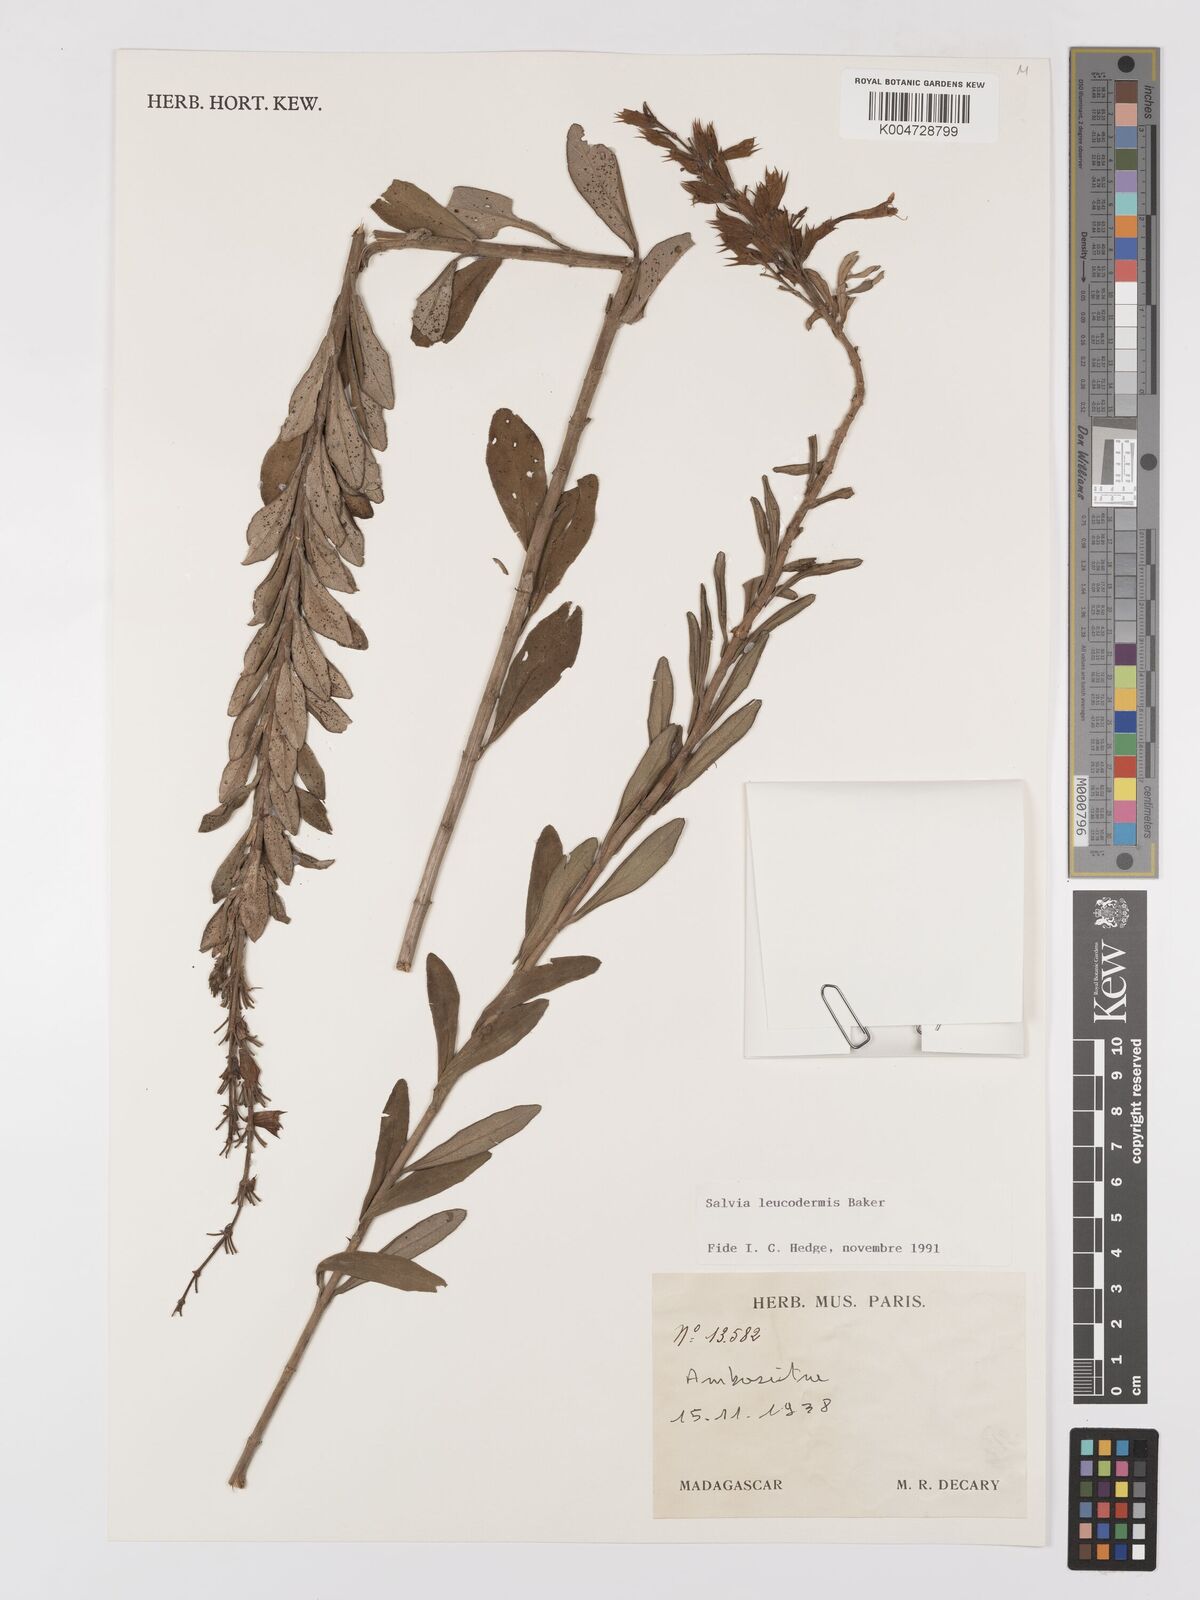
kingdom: Plantae
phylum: Tracheophyta
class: Magnoliopsida
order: Lamiales
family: Lamiaceae
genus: Salvia
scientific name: Salvia leucodermis
